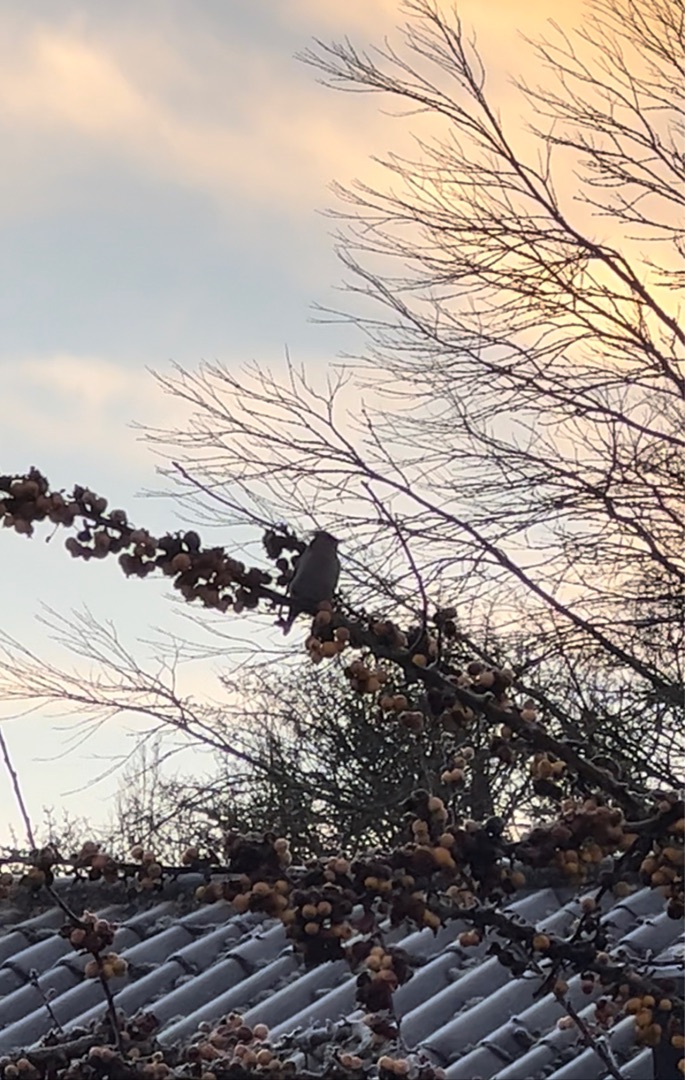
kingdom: Animalia
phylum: Chordata
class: Aves
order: Passeriformes
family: Bombycillidae
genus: Bombycilla
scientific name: Bombycilla garrulus
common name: Silkehale
